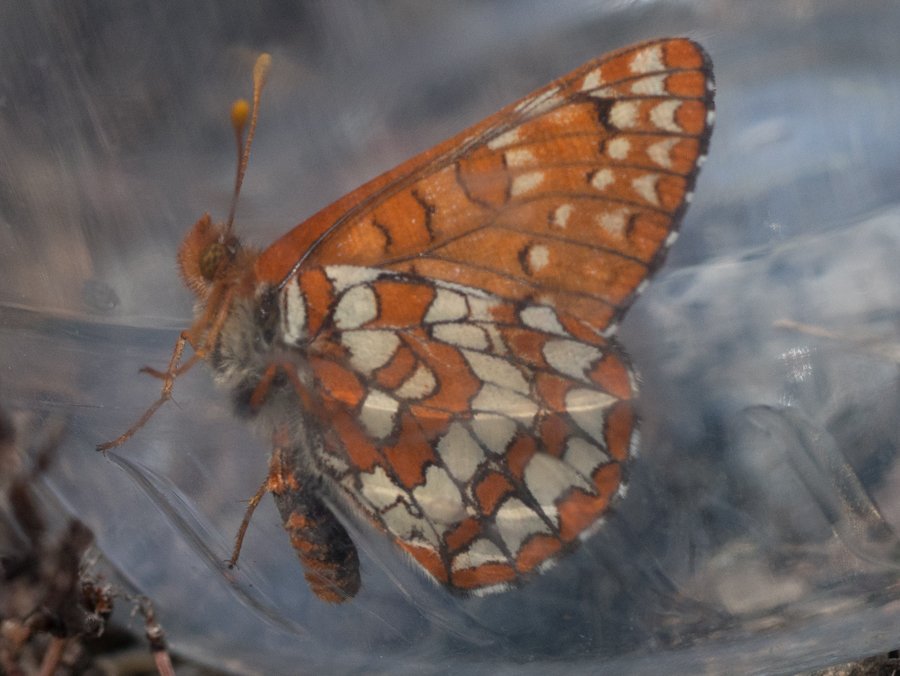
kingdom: Animalia
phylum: Arthropoda
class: Insecta
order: Lepidoptera
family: Nymphalidae
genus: Occidryas
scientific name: Occidryas anicia
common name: Anicia Checkerspot
